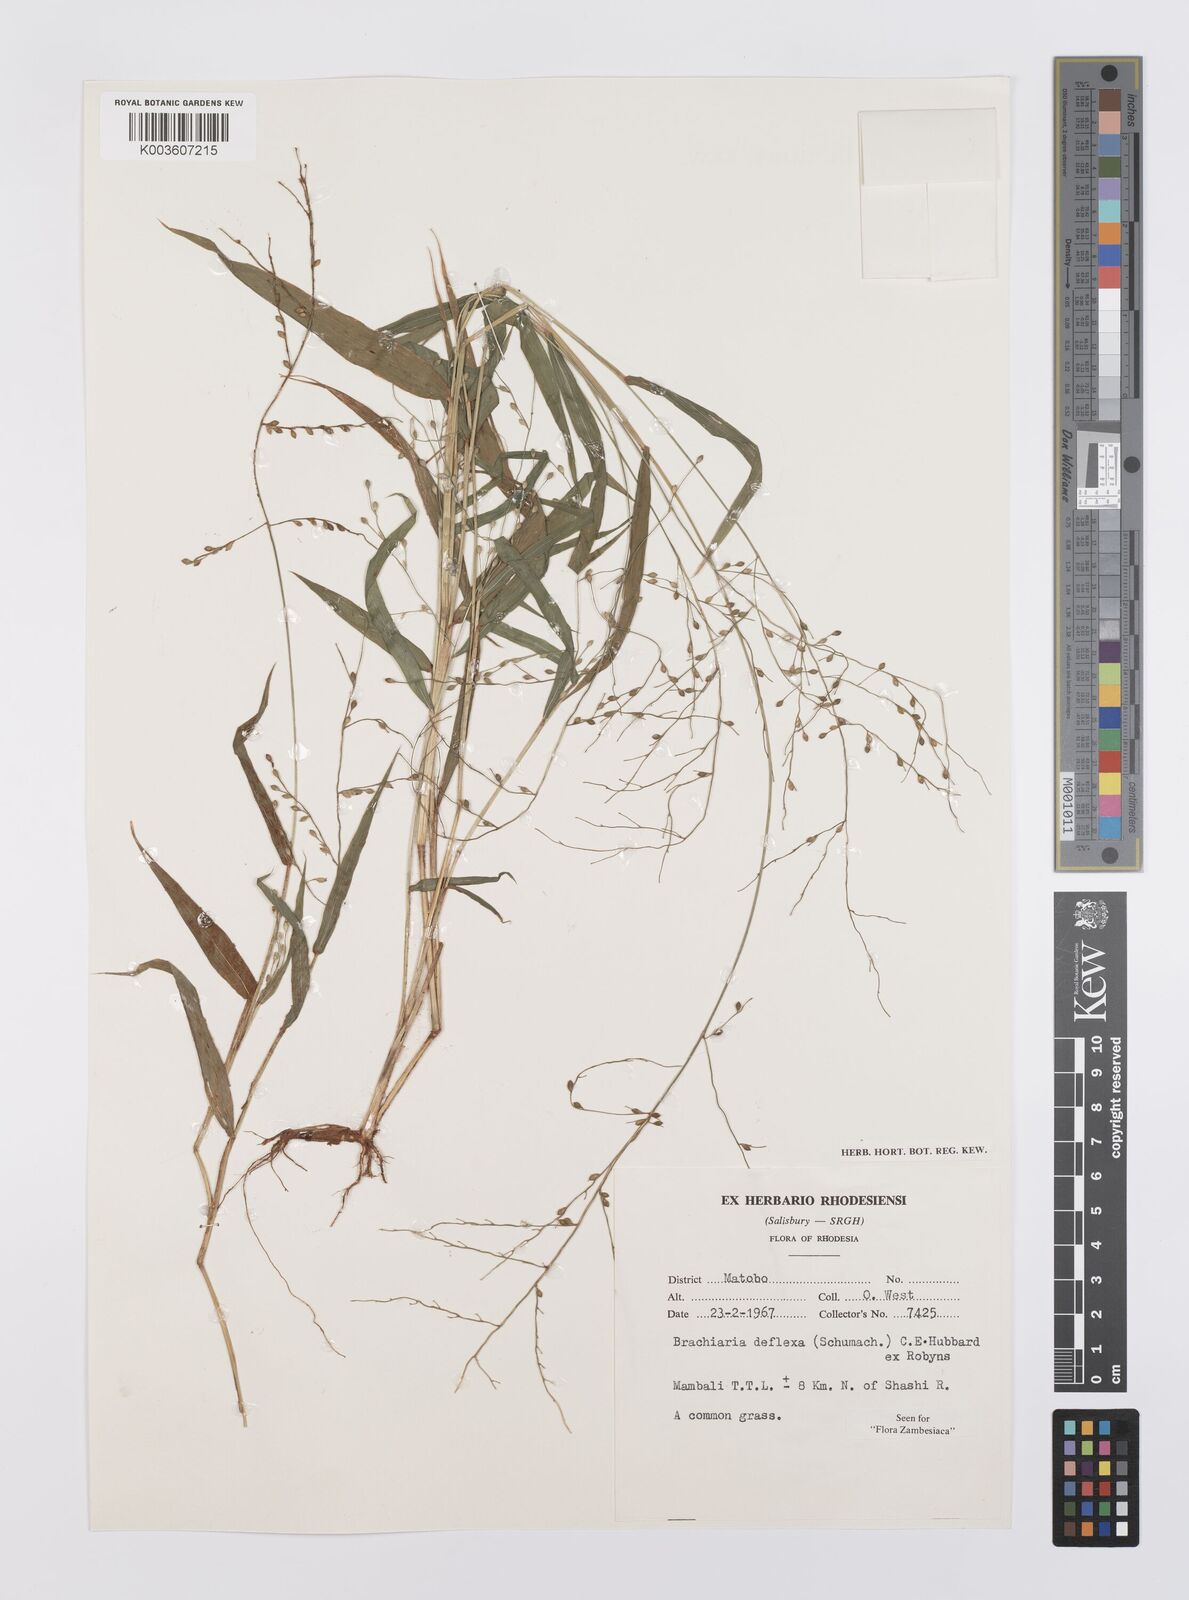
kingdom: Plantae
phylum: Tracheophyta
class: Liliopsida
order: Poales
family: Poaceae
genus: Urochloa
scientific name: Urochloa deflexa
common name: Guinea millet
